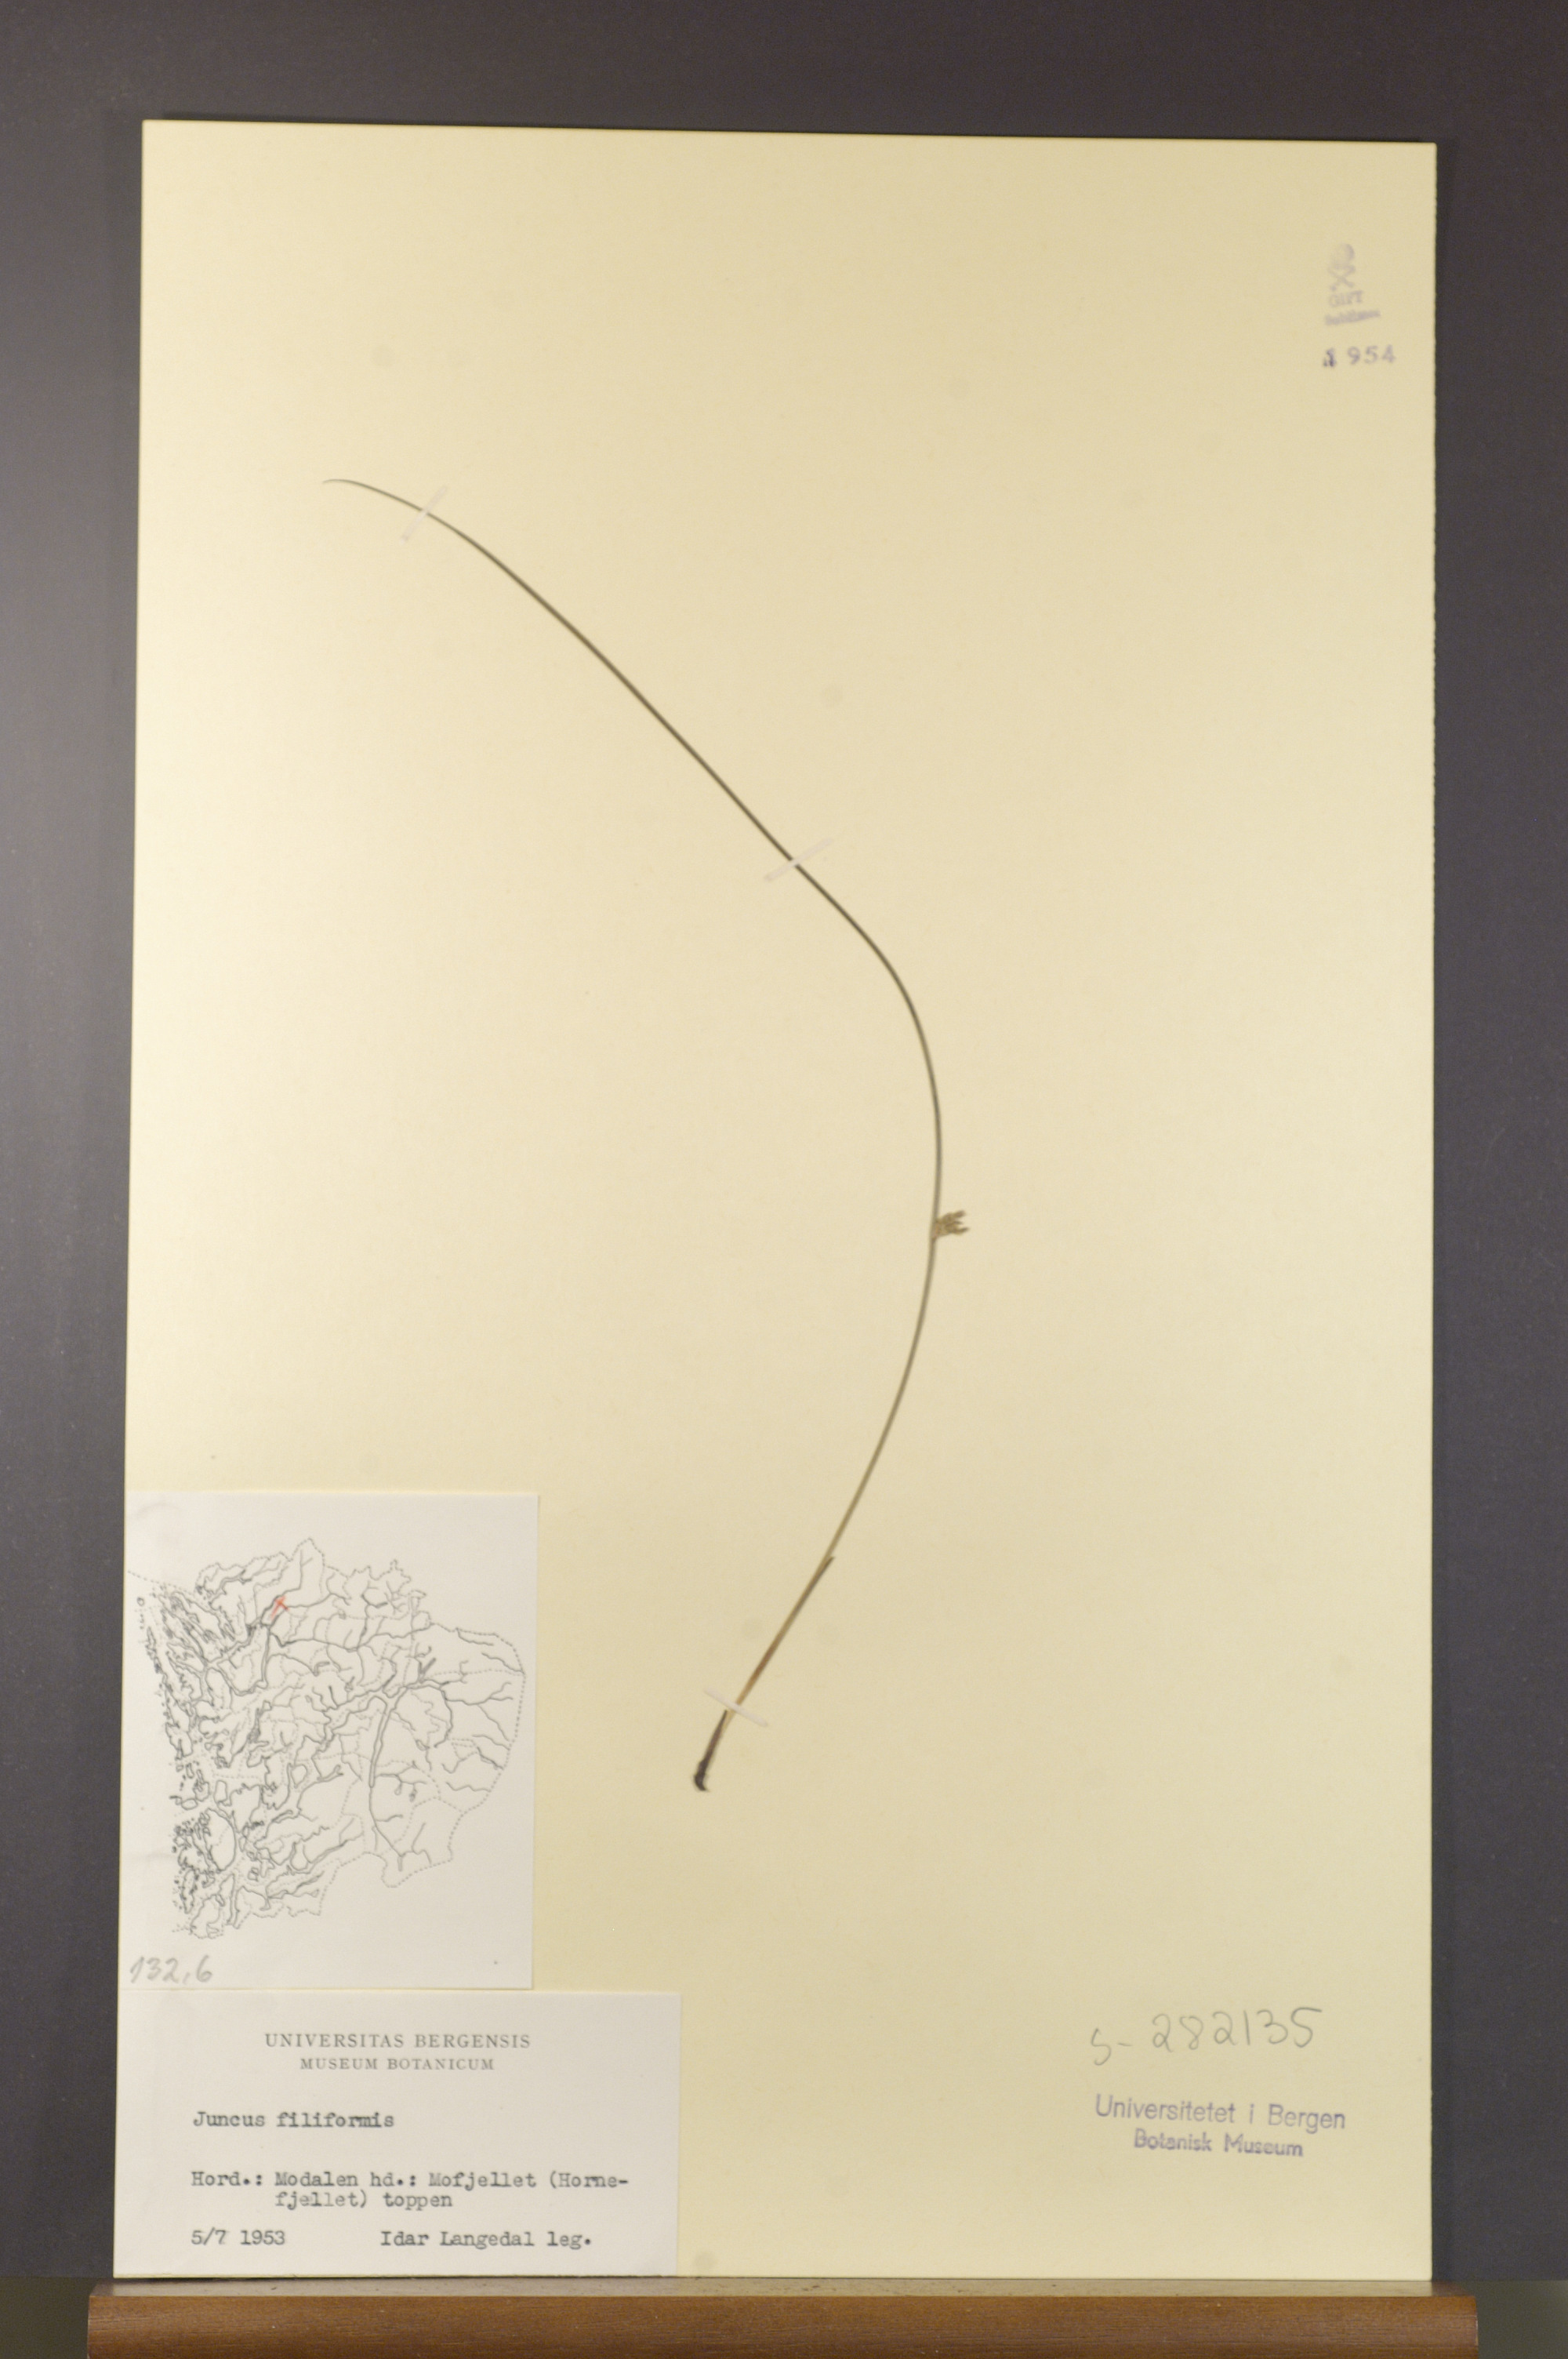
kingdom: Plantae
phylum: Tracheophyta
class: Liliopsida
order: Poales
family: Juncaceae
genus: Juncus
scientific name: Juncus filiformis
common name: Thread rush
